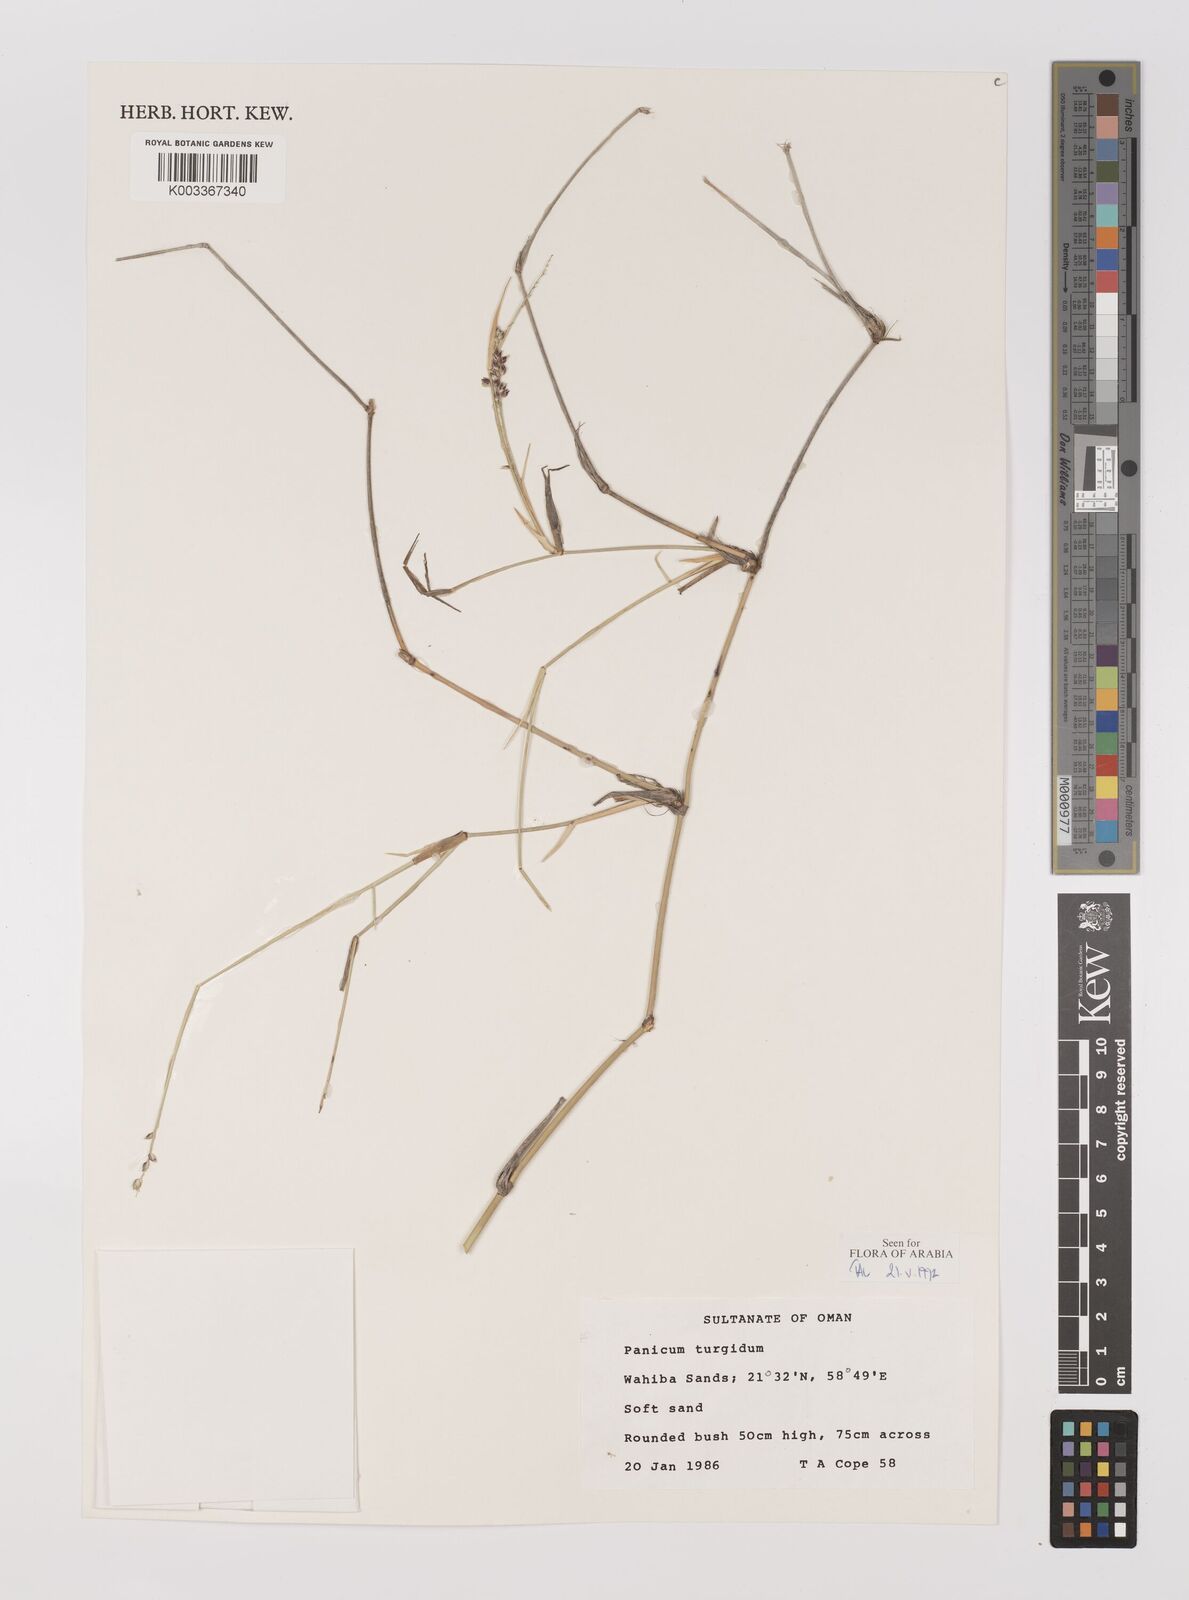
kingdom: Plantae
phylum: Tracheophyta
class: Liliopsida
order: Poales
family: Poaceae
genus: Panicum
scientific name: Panicum turgidum
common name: Desert grass
